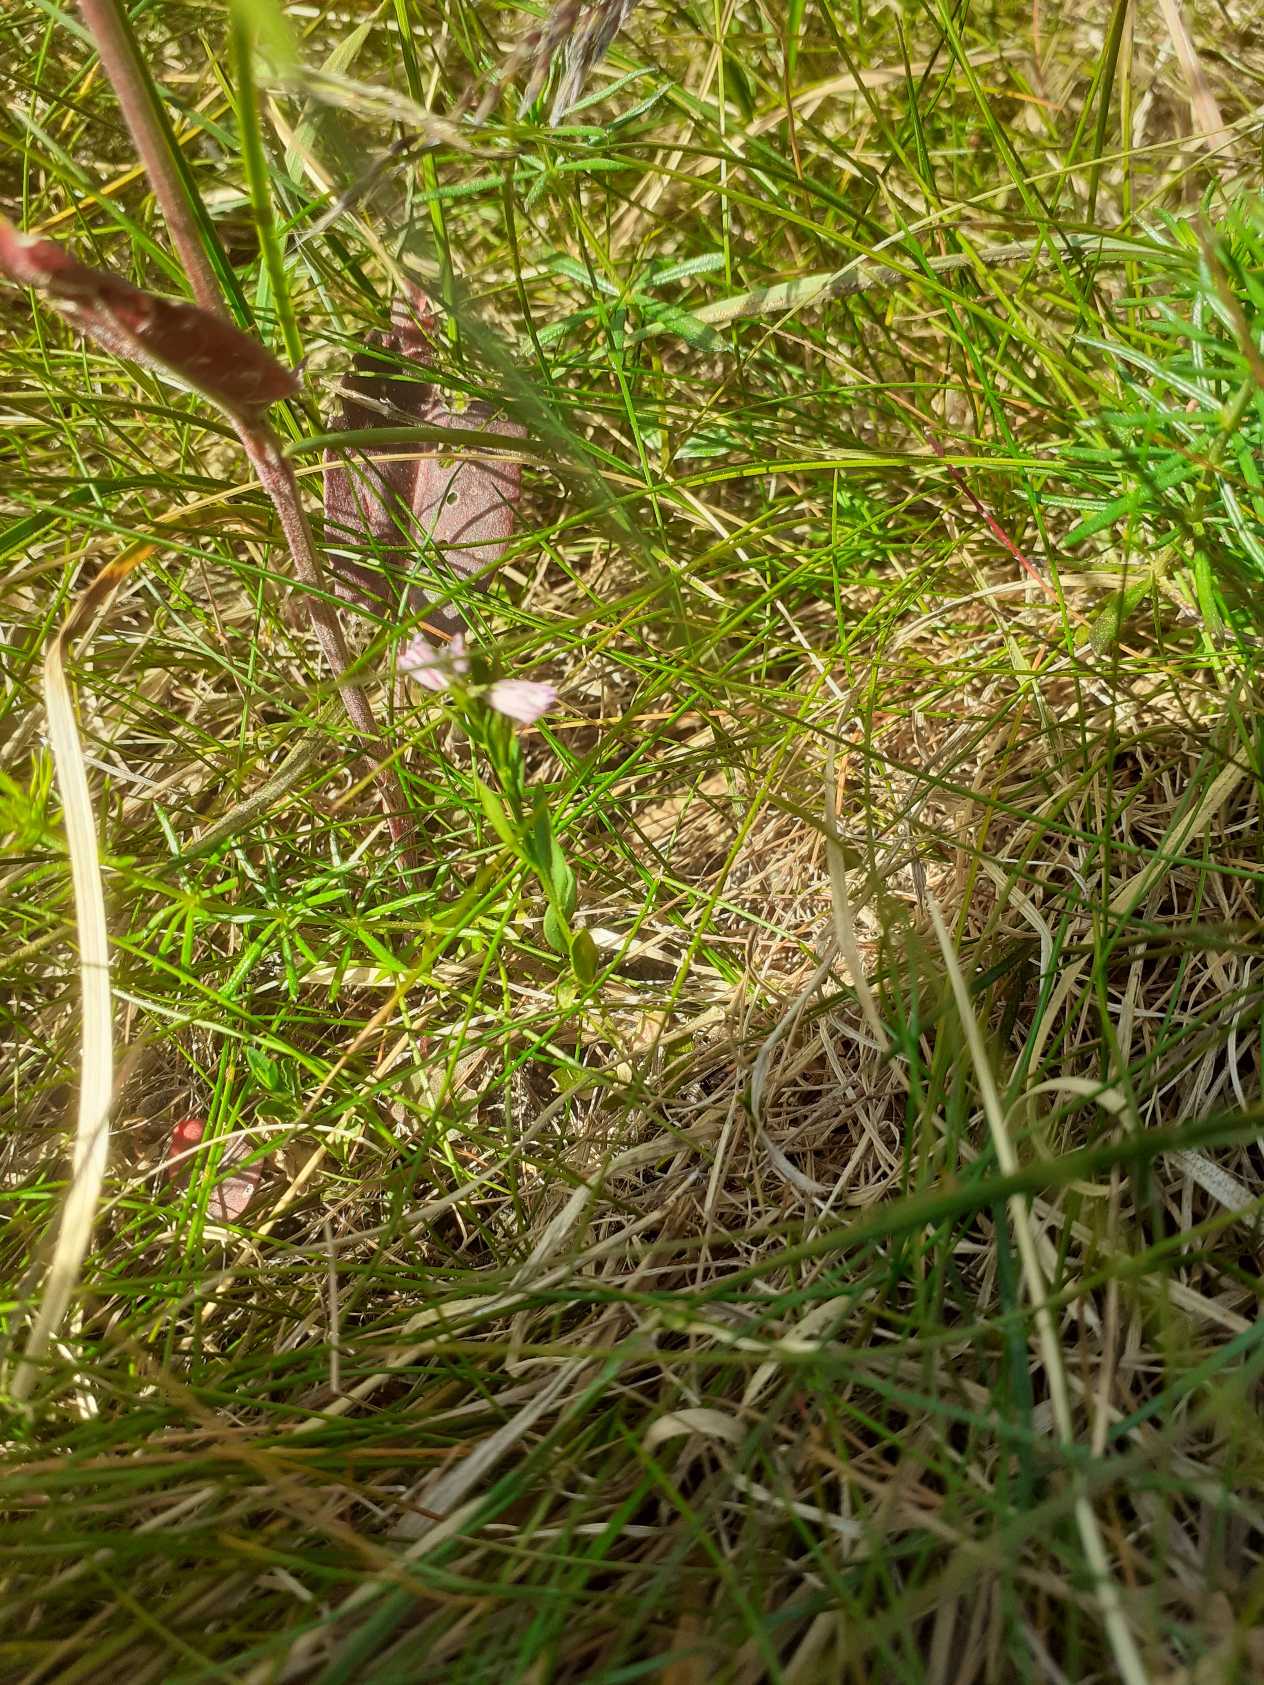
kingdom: Plantae
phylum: Tracheophyta
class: Magnoliopsida
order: Fabales
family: Polygalaceae
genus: Polygala
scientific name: Polygala vulgaris
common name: Almindelig mælkeurt
